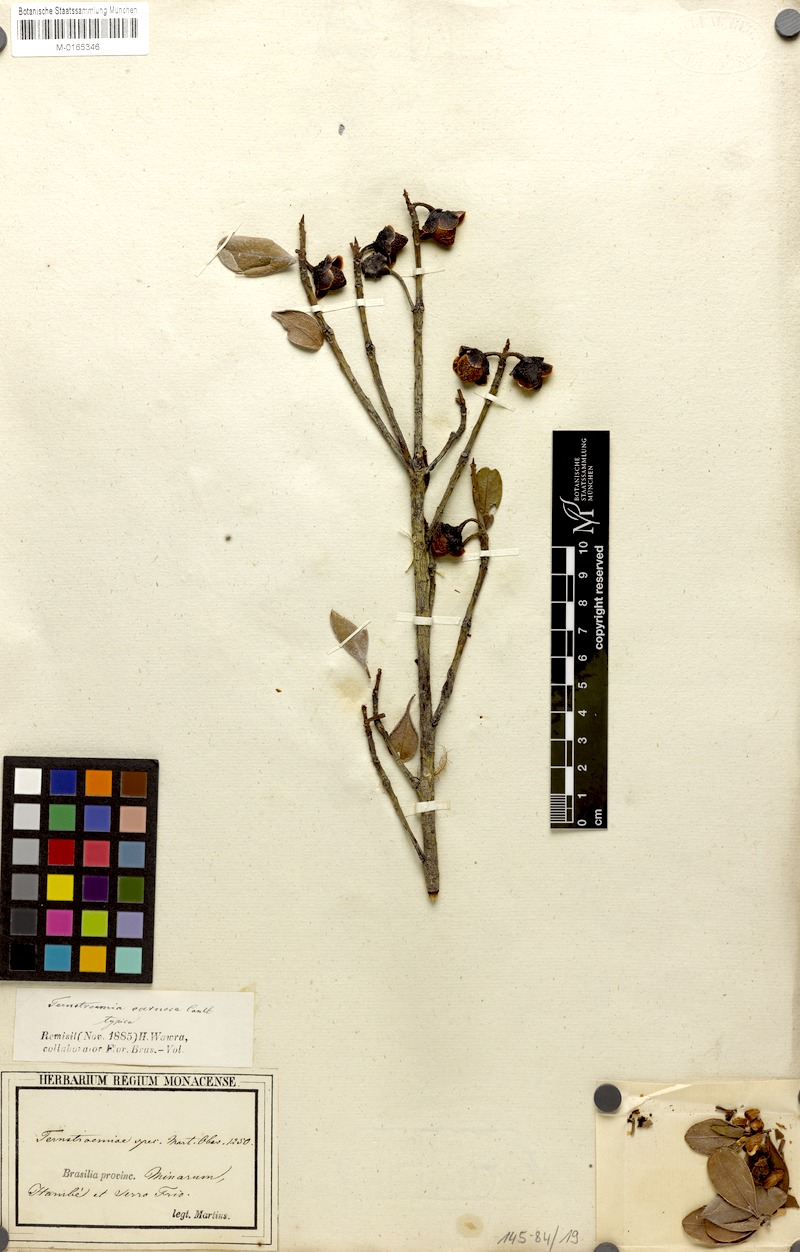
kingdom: Plantae
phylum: Tracheophyta
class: Magnoliopsida
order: Ericales
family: Pentaphylacaceae
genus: Ternstroemia
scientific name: Ternstroemia carnosa
